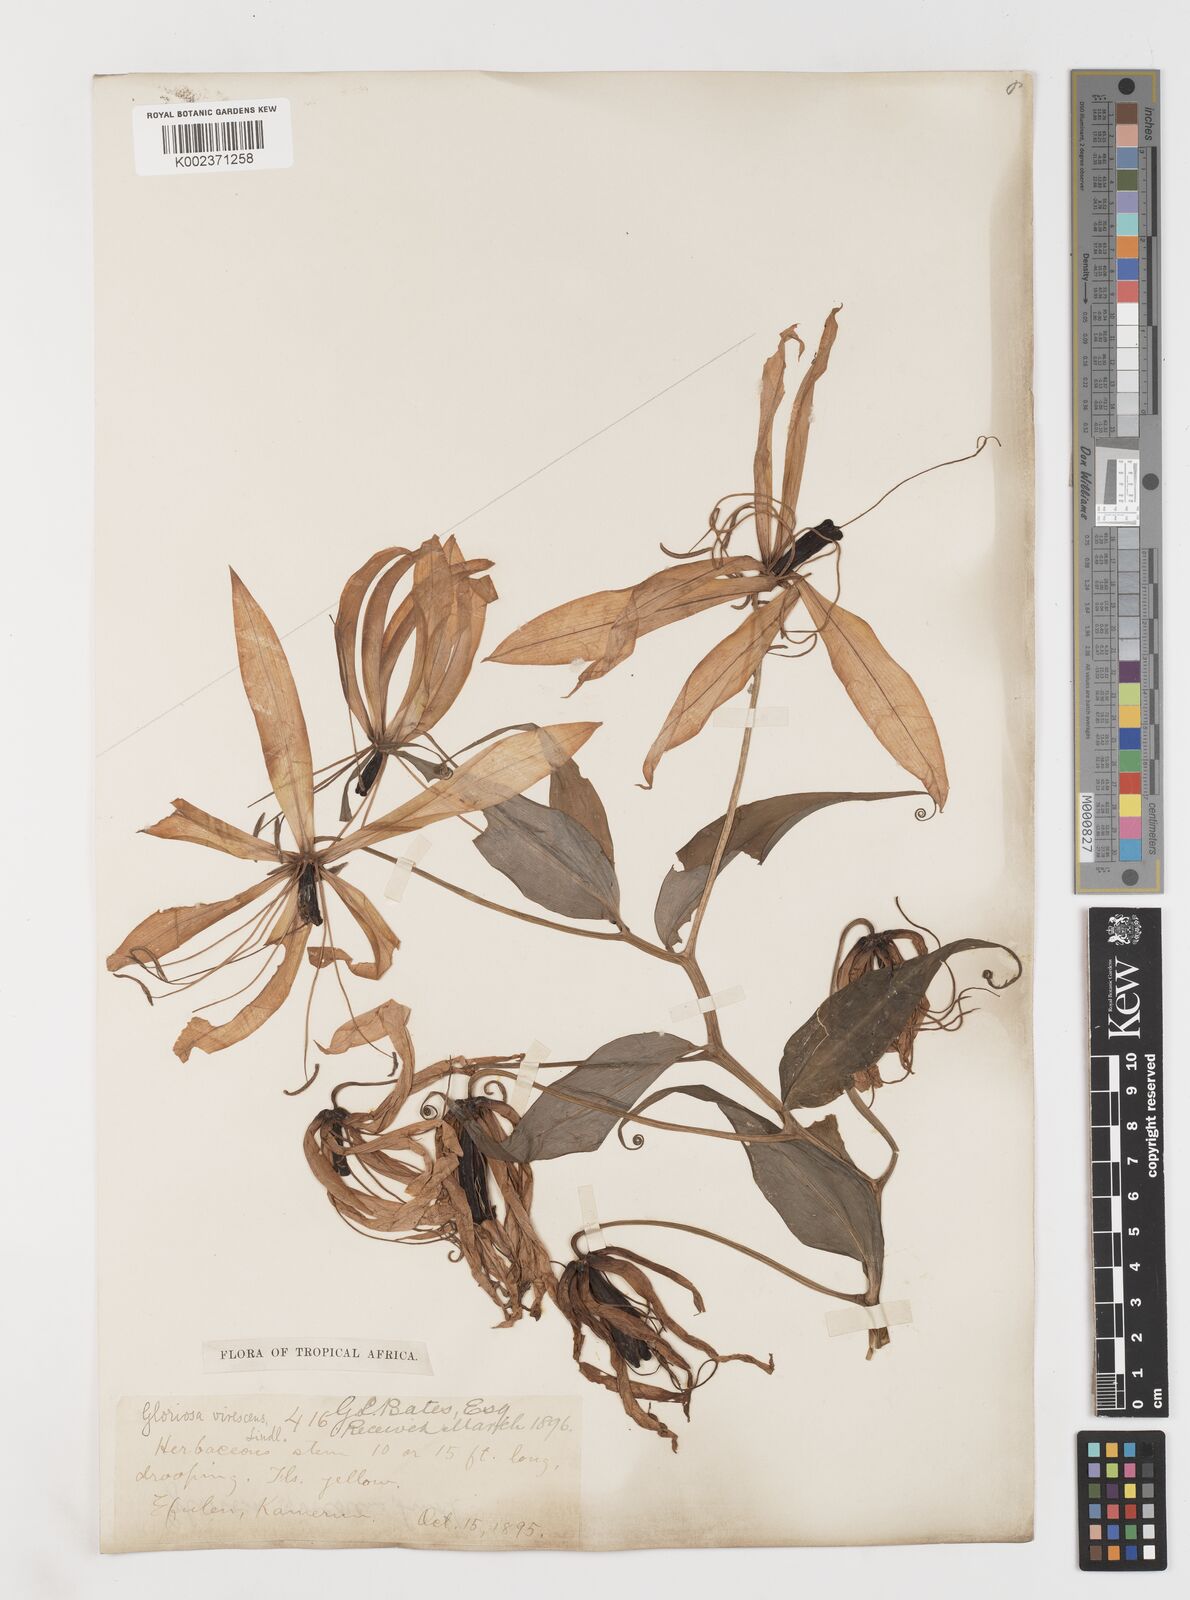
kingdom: Plantae
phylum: Tracheophyta
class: Liliopsida
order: Liliales
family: Colchicaceae
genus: Gloriosa
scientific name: Gloriosa simplex
